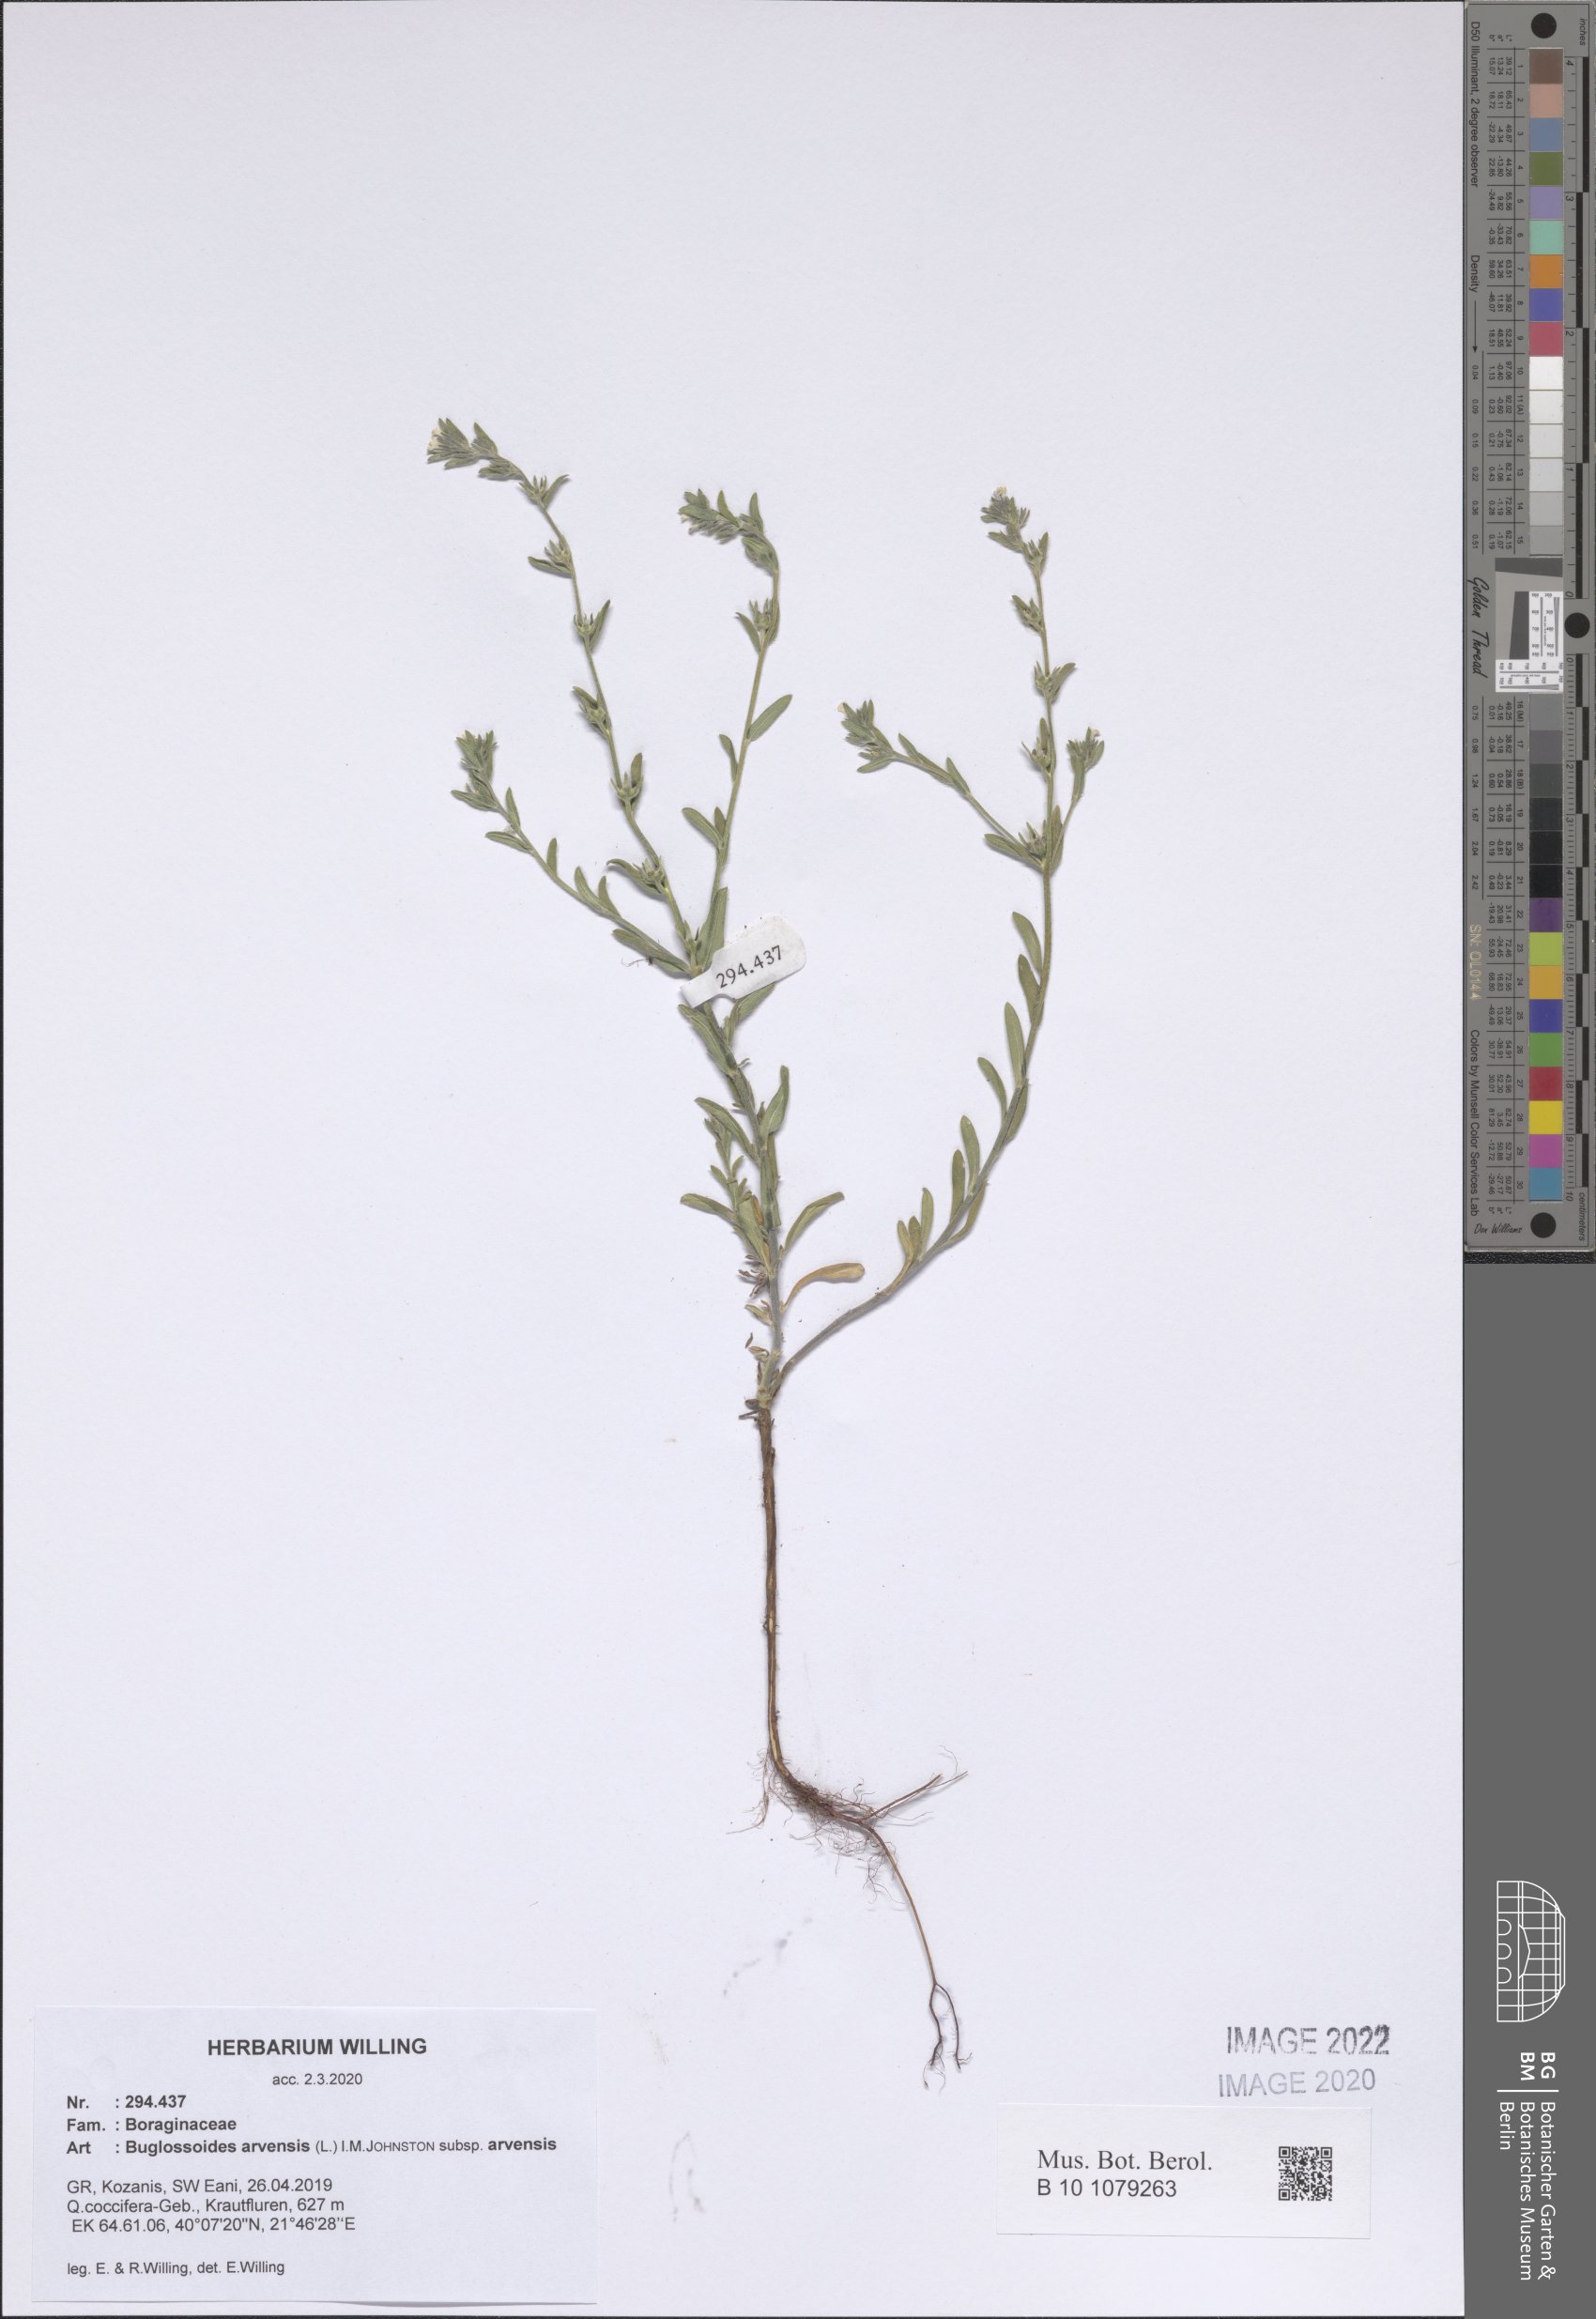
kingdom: Plantae
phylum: Tracheophyta
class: Magnoliopsida
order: Boraginales
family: Boraginaceae
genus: Buglossoides
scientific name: Buglossoides arvensis
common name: Corn gromwell
